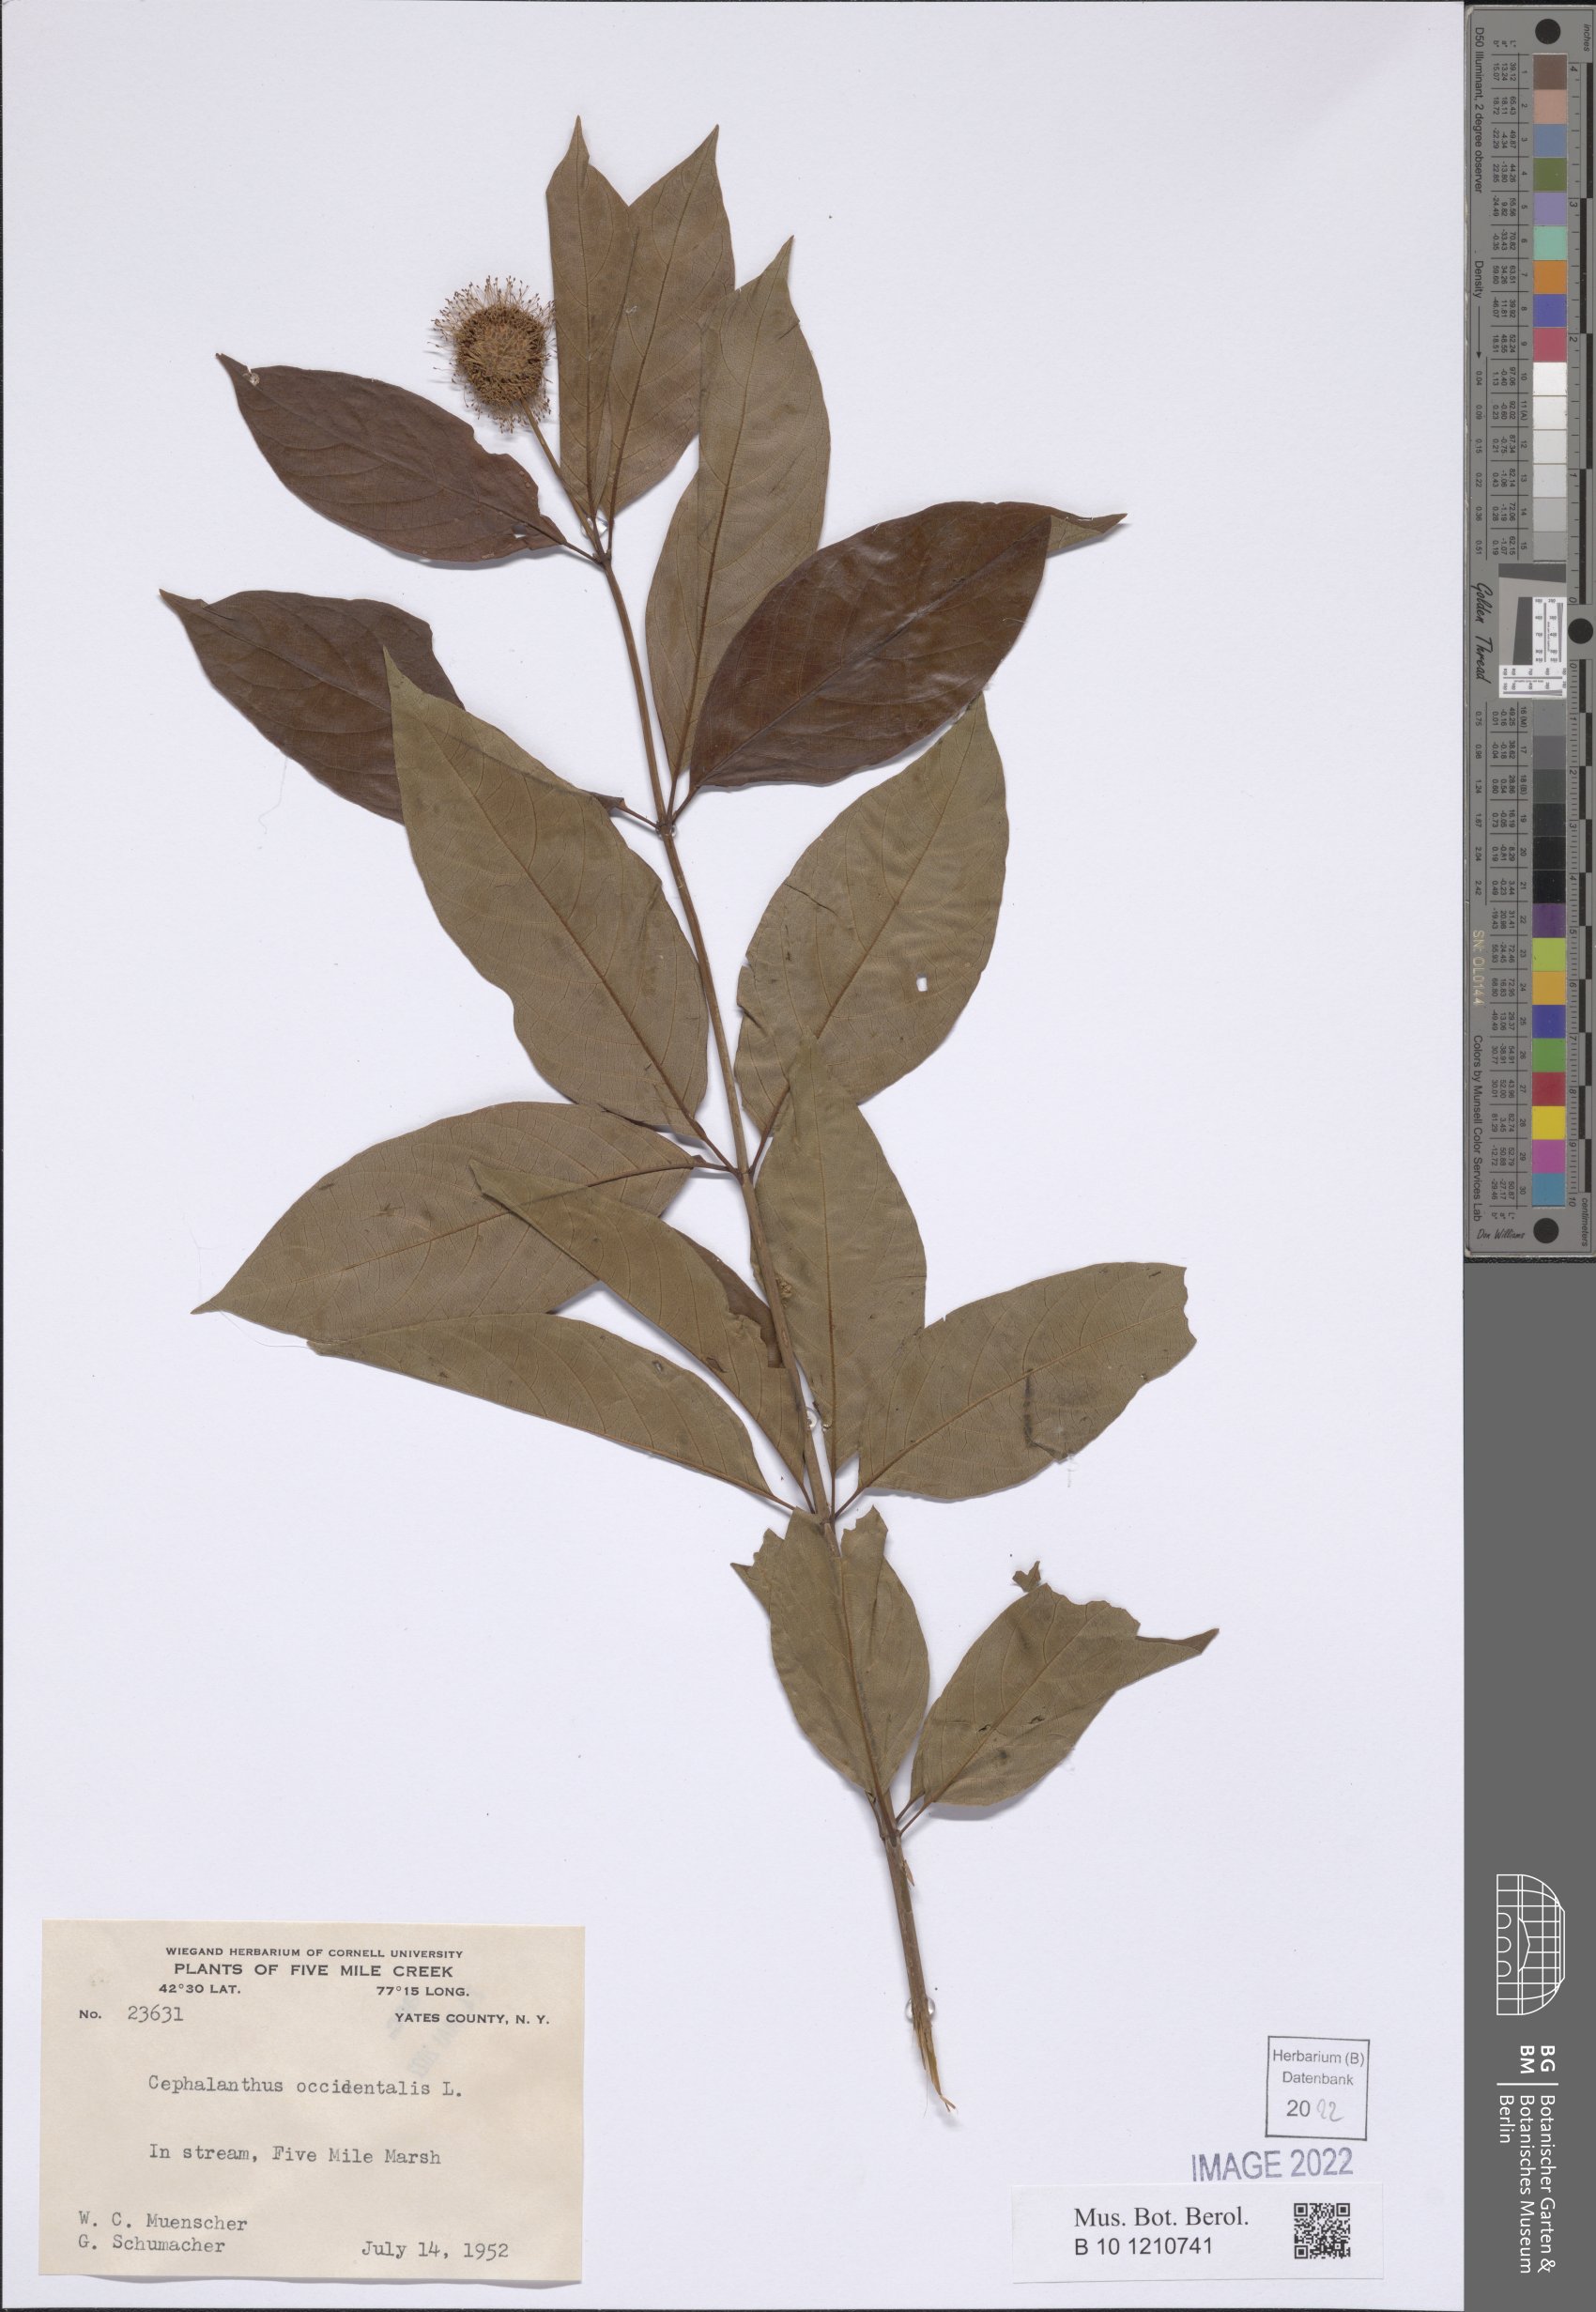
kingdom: Plantae
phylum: Tracheophyta
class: Magnoliopsida
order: Gentianales
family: Rubiaceae
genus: Cephalanthus
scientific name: Cephalanthus occidentalis
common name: Button-willow
